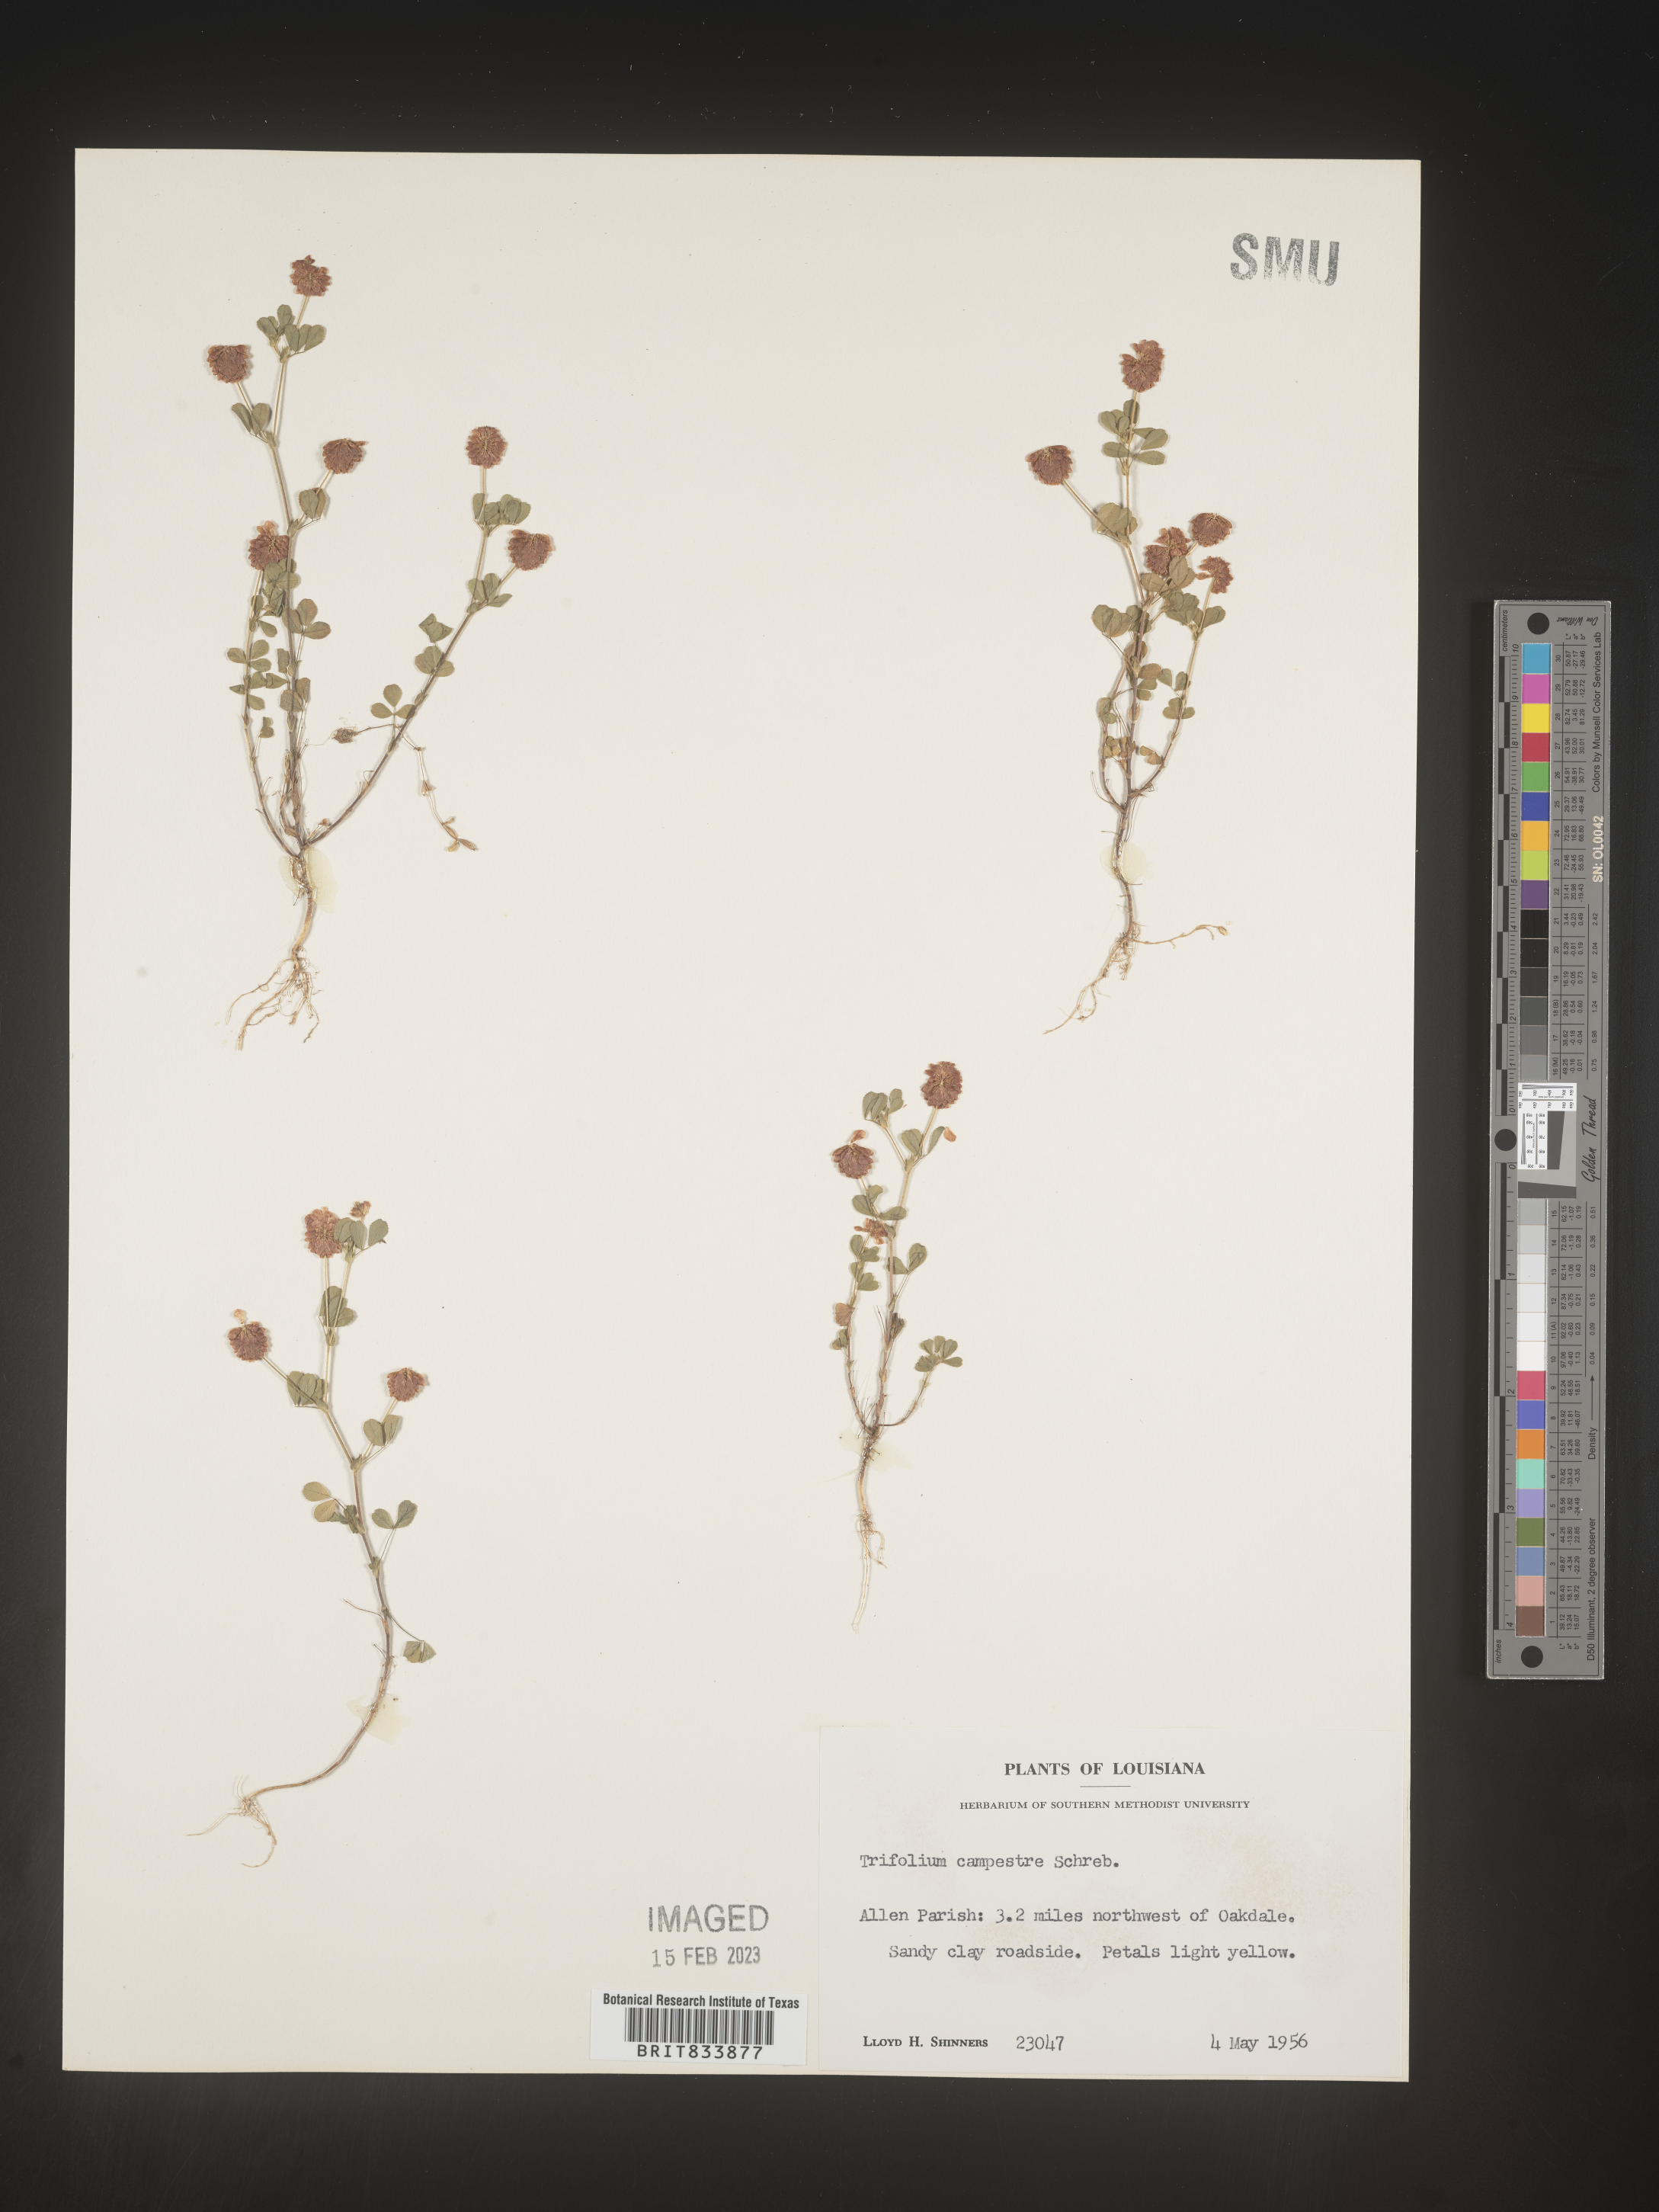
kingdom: Plantae
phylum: Tracheophyta
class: Magnoliopsida
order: Fabales
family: Fabaceae
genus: Trifolium
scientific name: Trifolium campestre
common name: Field clover
